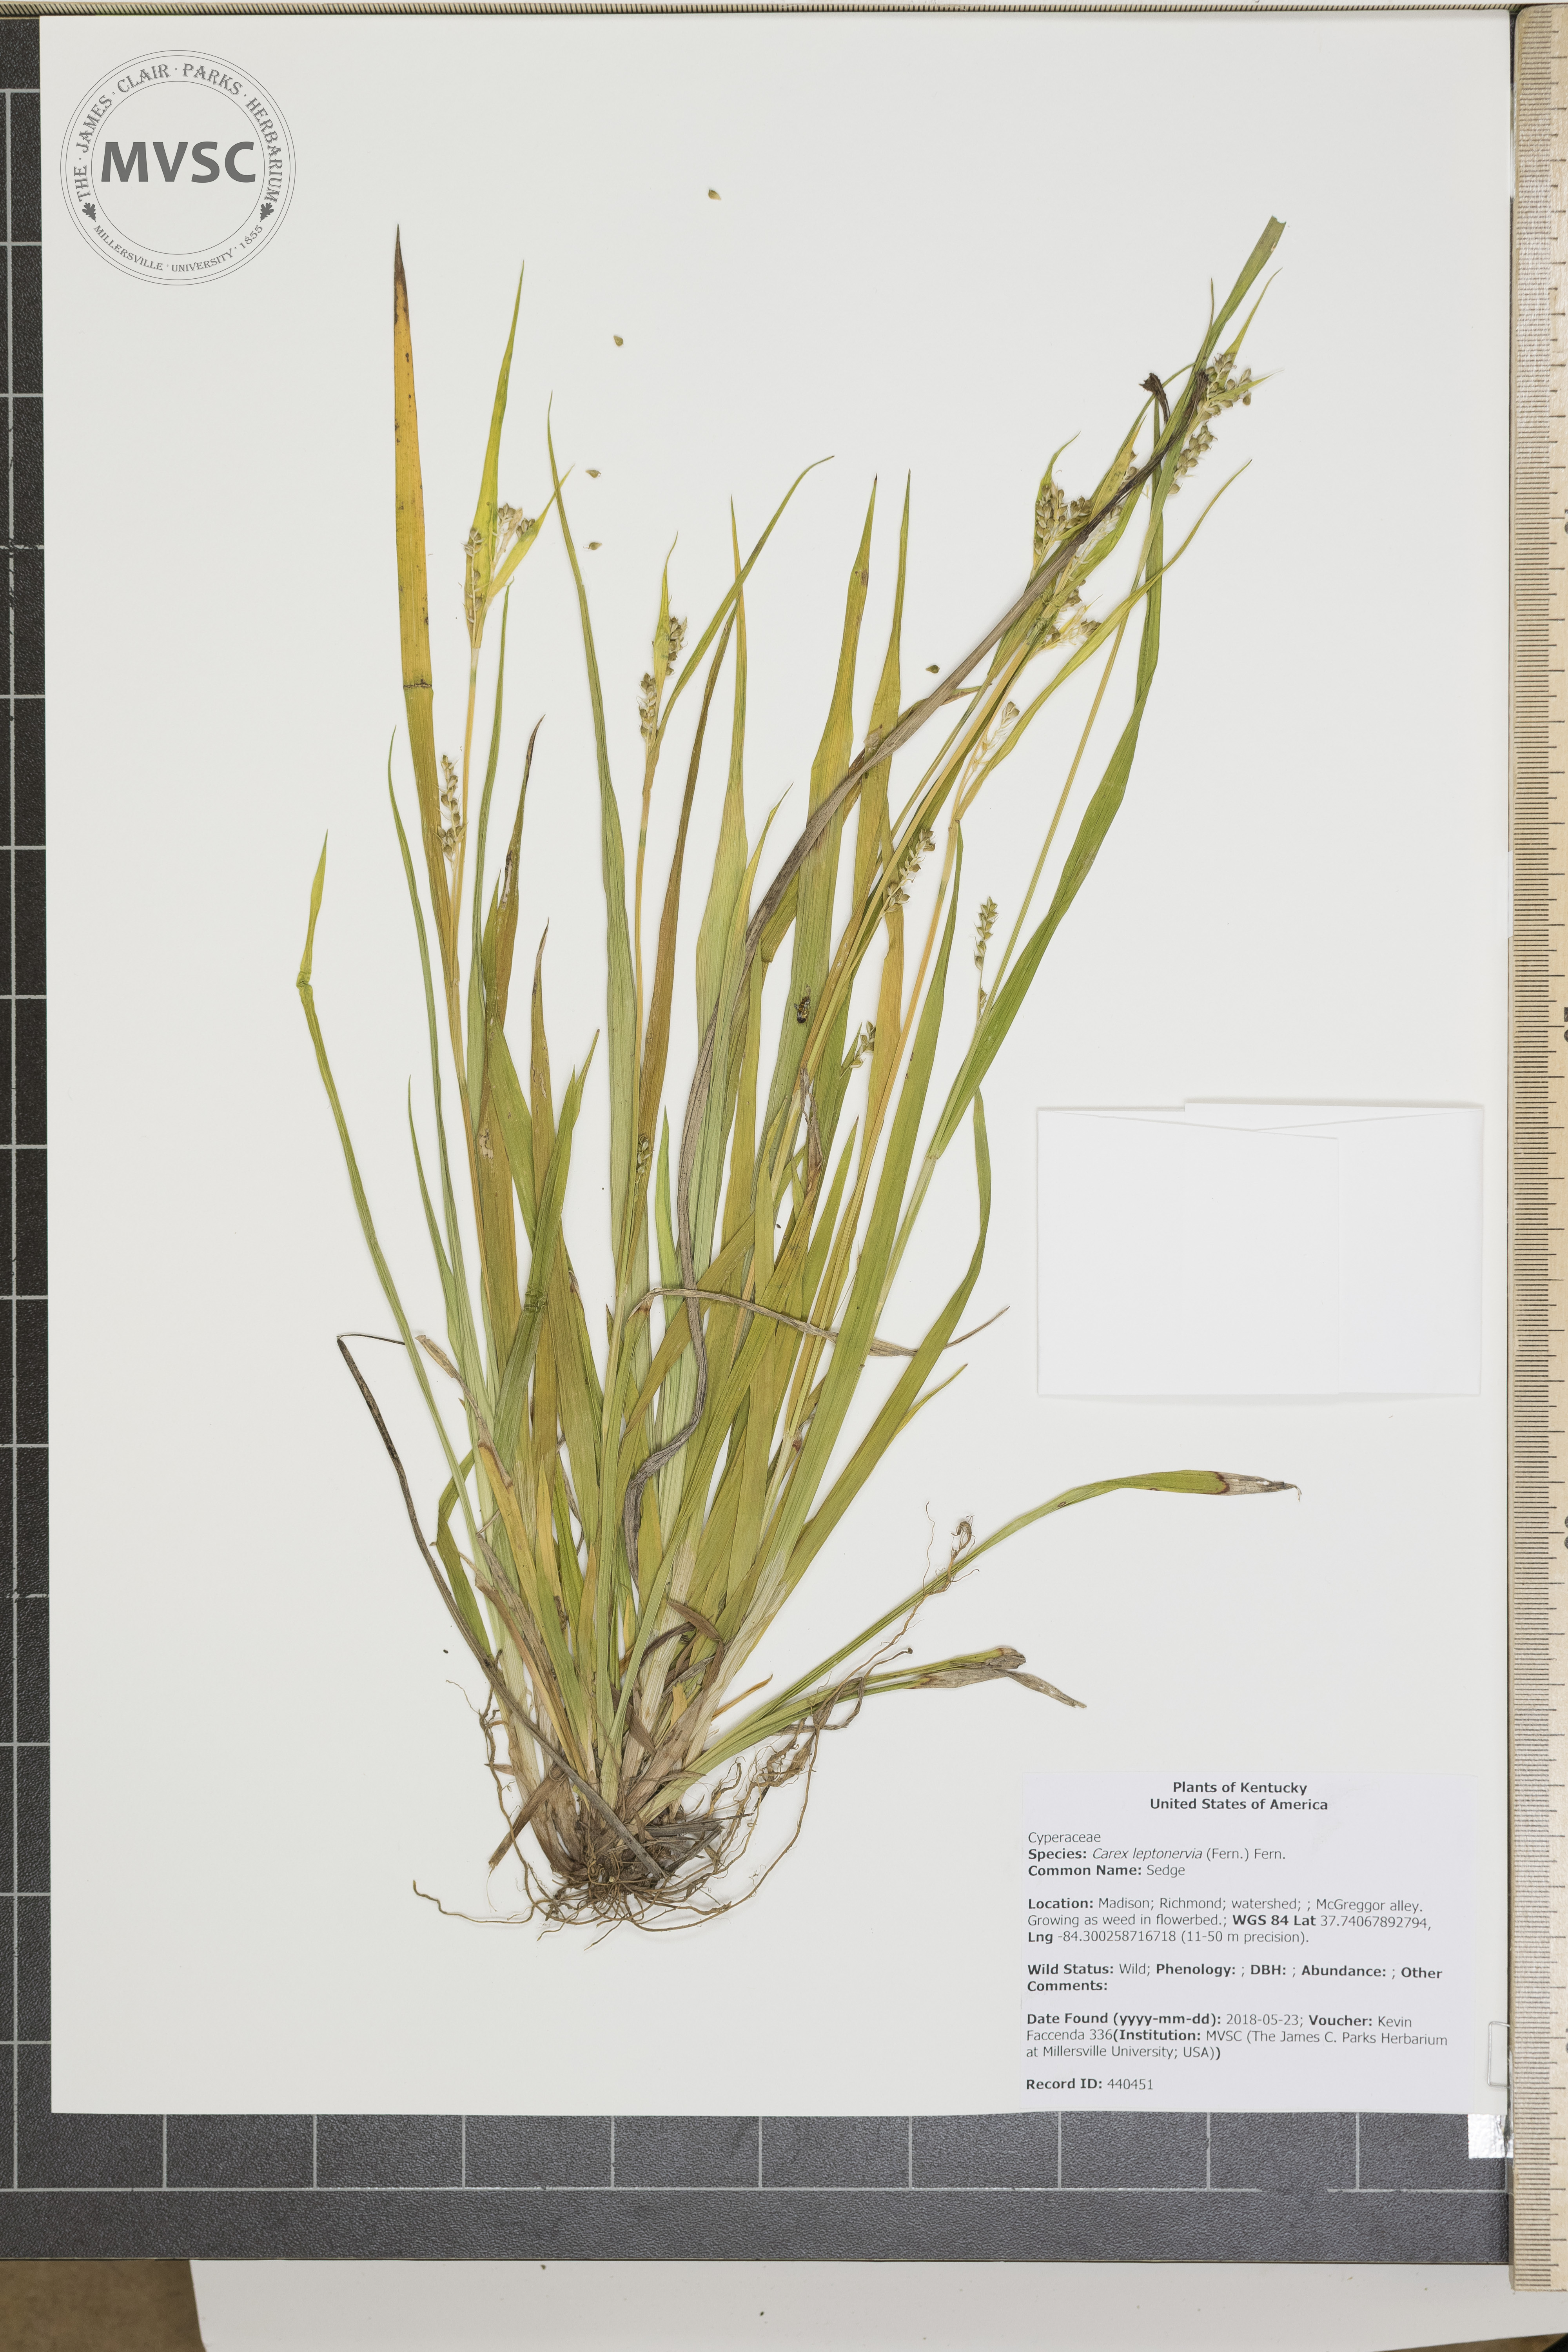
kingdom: Plantae
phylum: Tracheophyta
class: Liliopsida
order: Poales
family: Cyperaceae
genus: Carex
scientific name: Carex leptonervia
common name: Sedge
